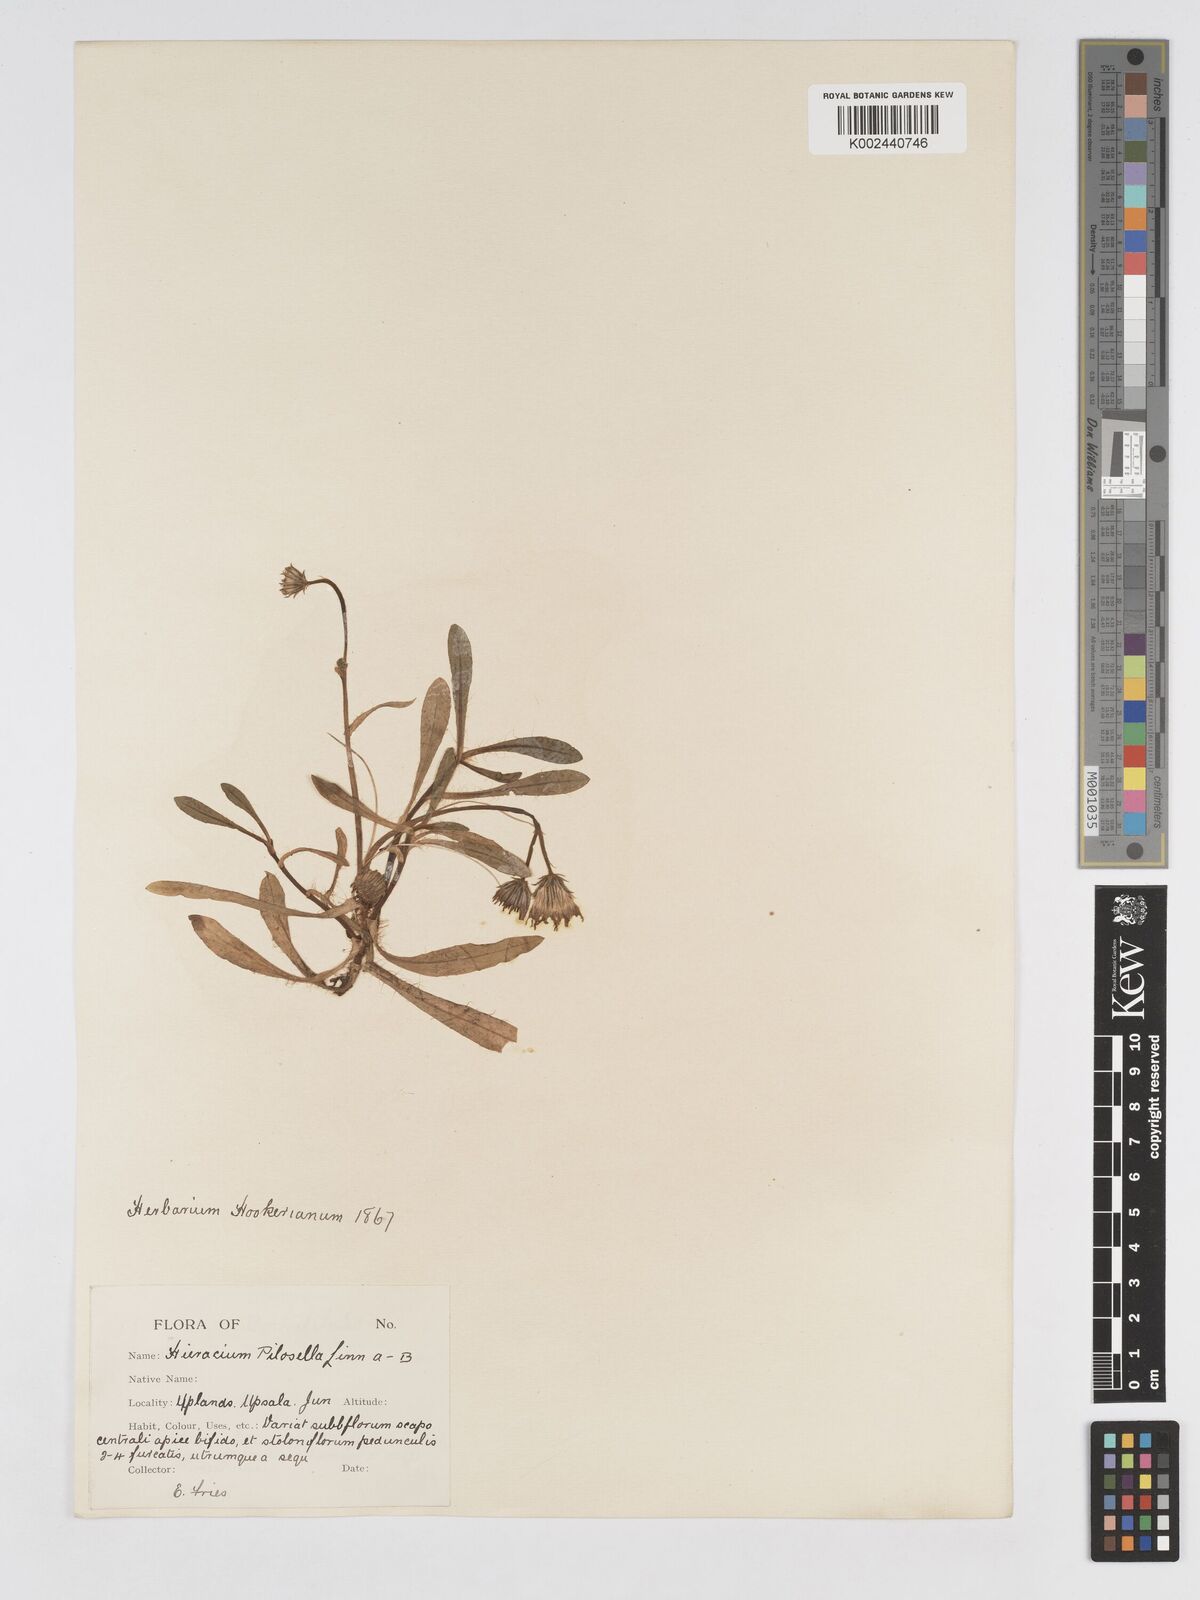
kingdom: Plantae
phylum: Tracheophyta
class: Magnoliopsida
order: Asterales
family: Asteraceae
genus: Pilosella
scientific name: Pilosella floribunda
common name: Glaucous hawkweed
